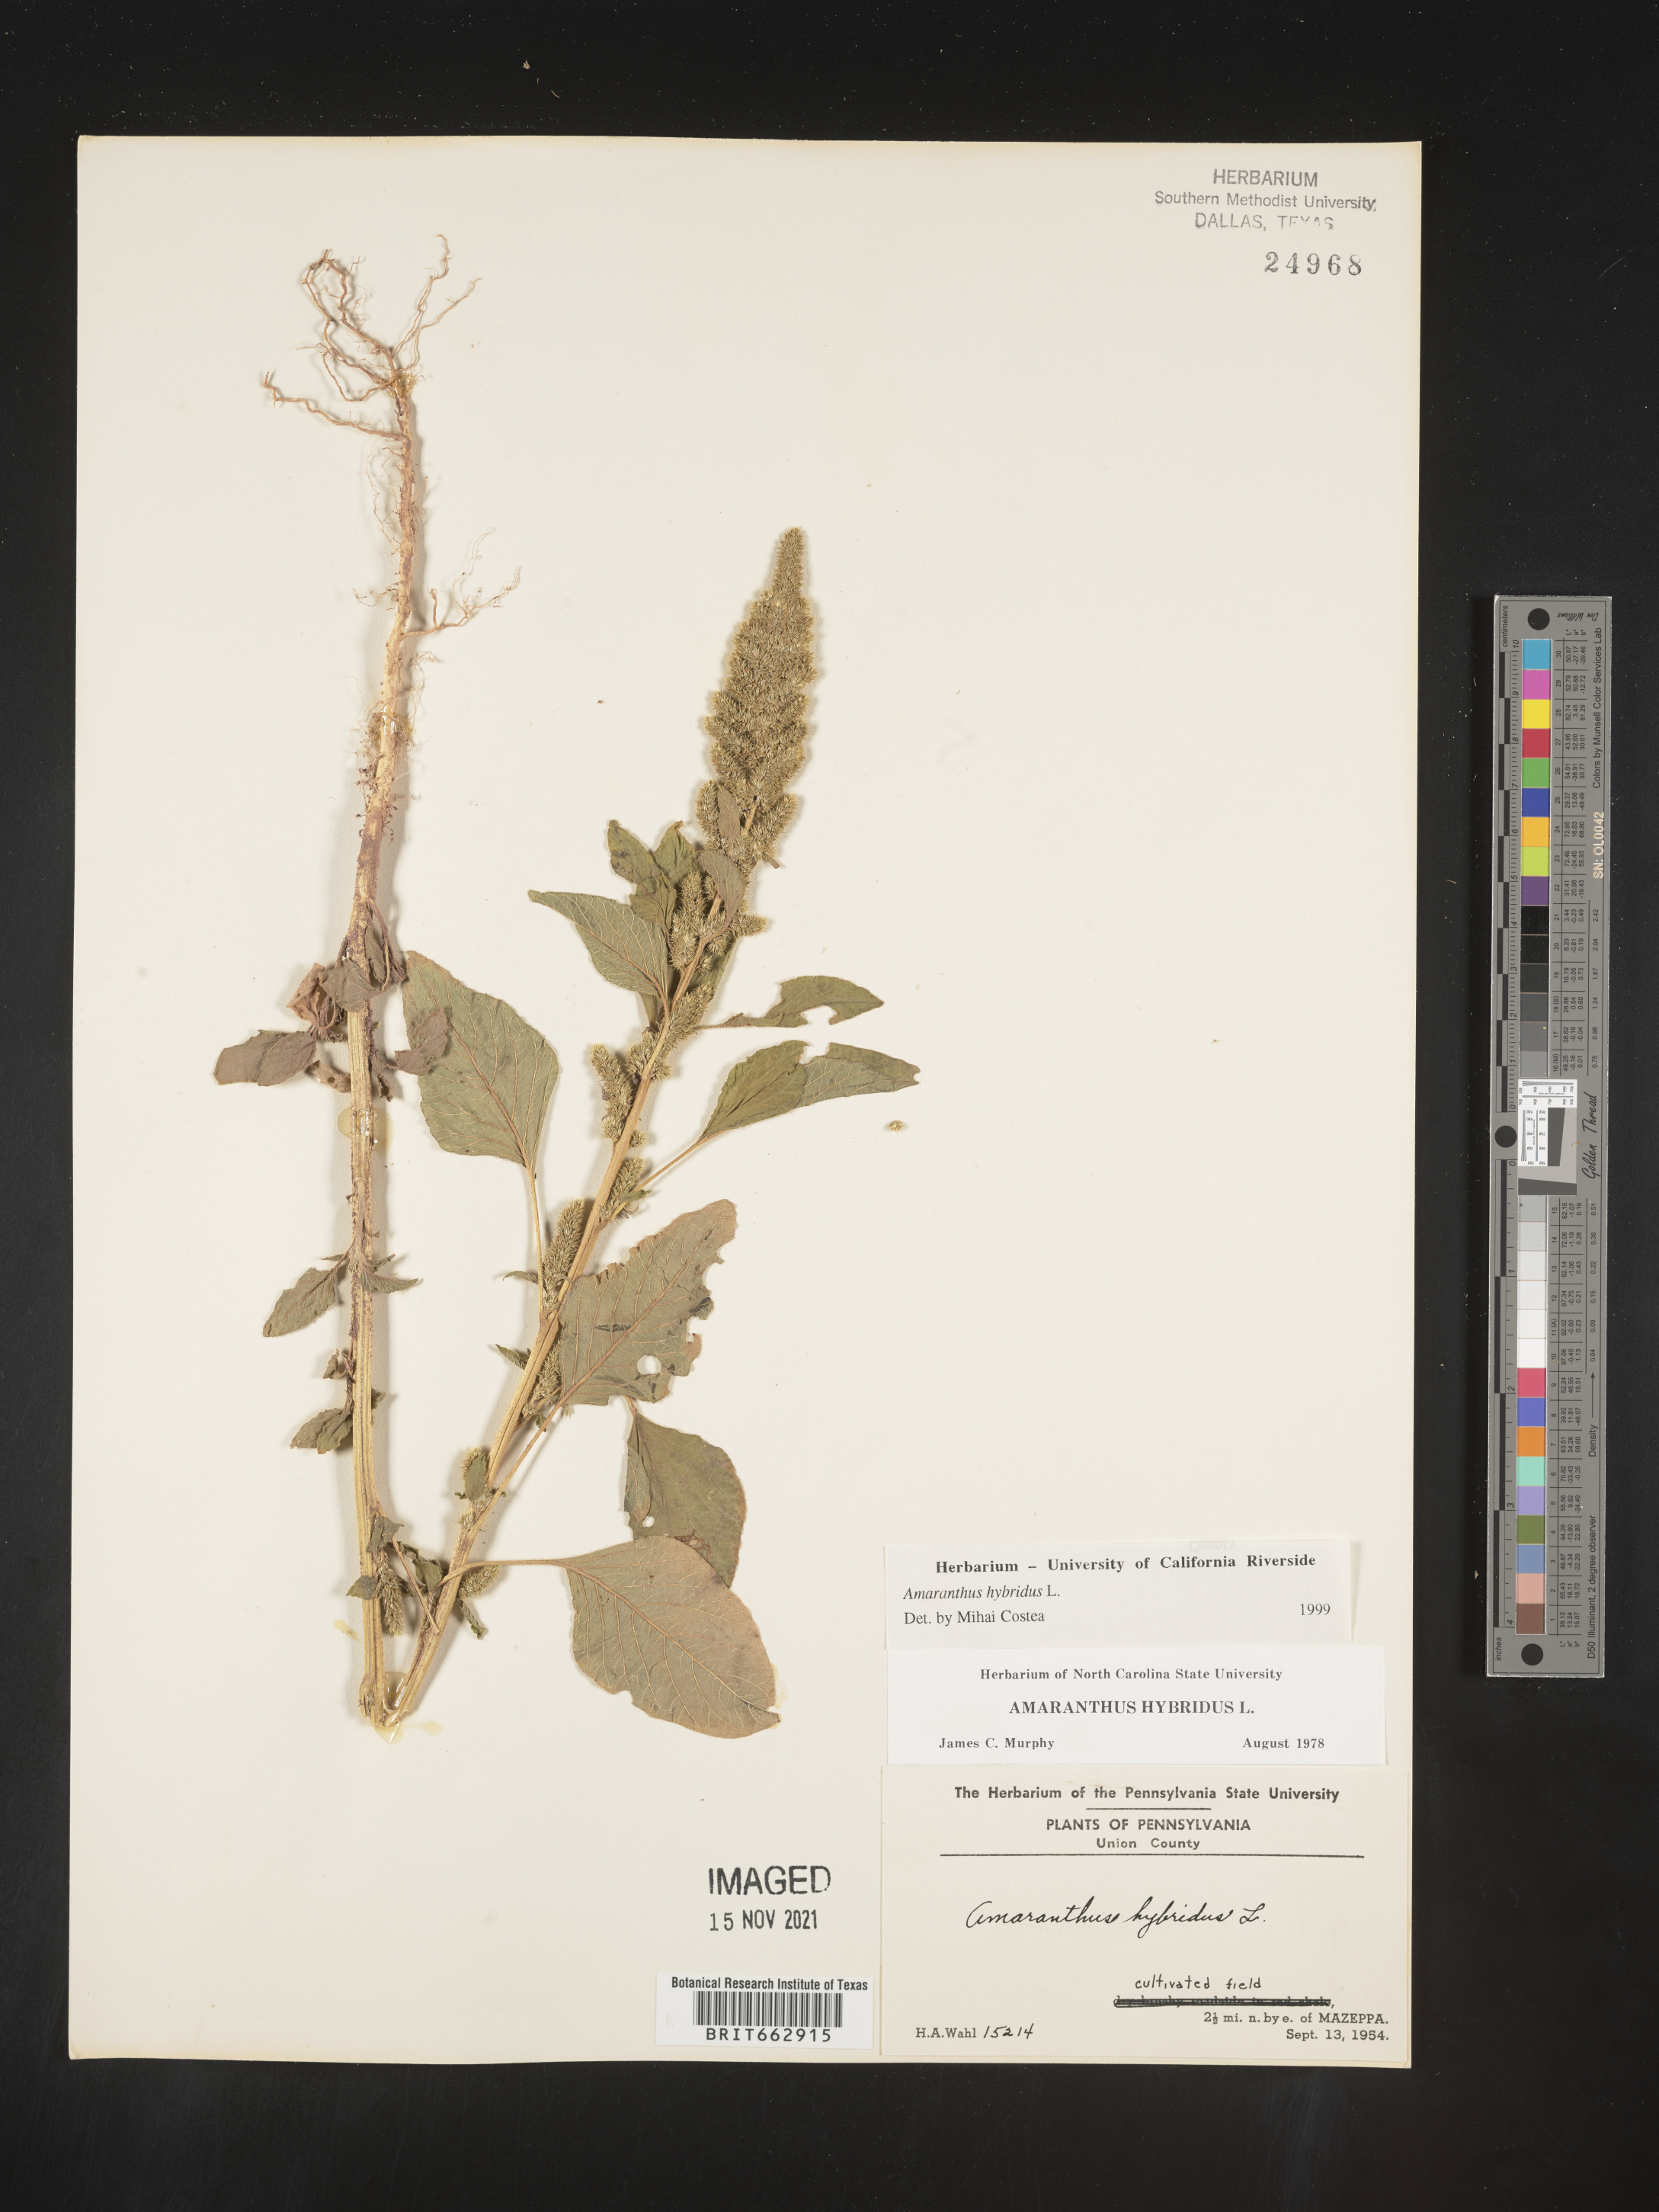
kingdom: Plantae
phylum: Tracheophyta
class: Magnoliopsida
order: Caryophyllales
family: Amaranthaceae
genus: Amaranthus
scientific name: Amaranthus hybridus
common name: Green amaranth
